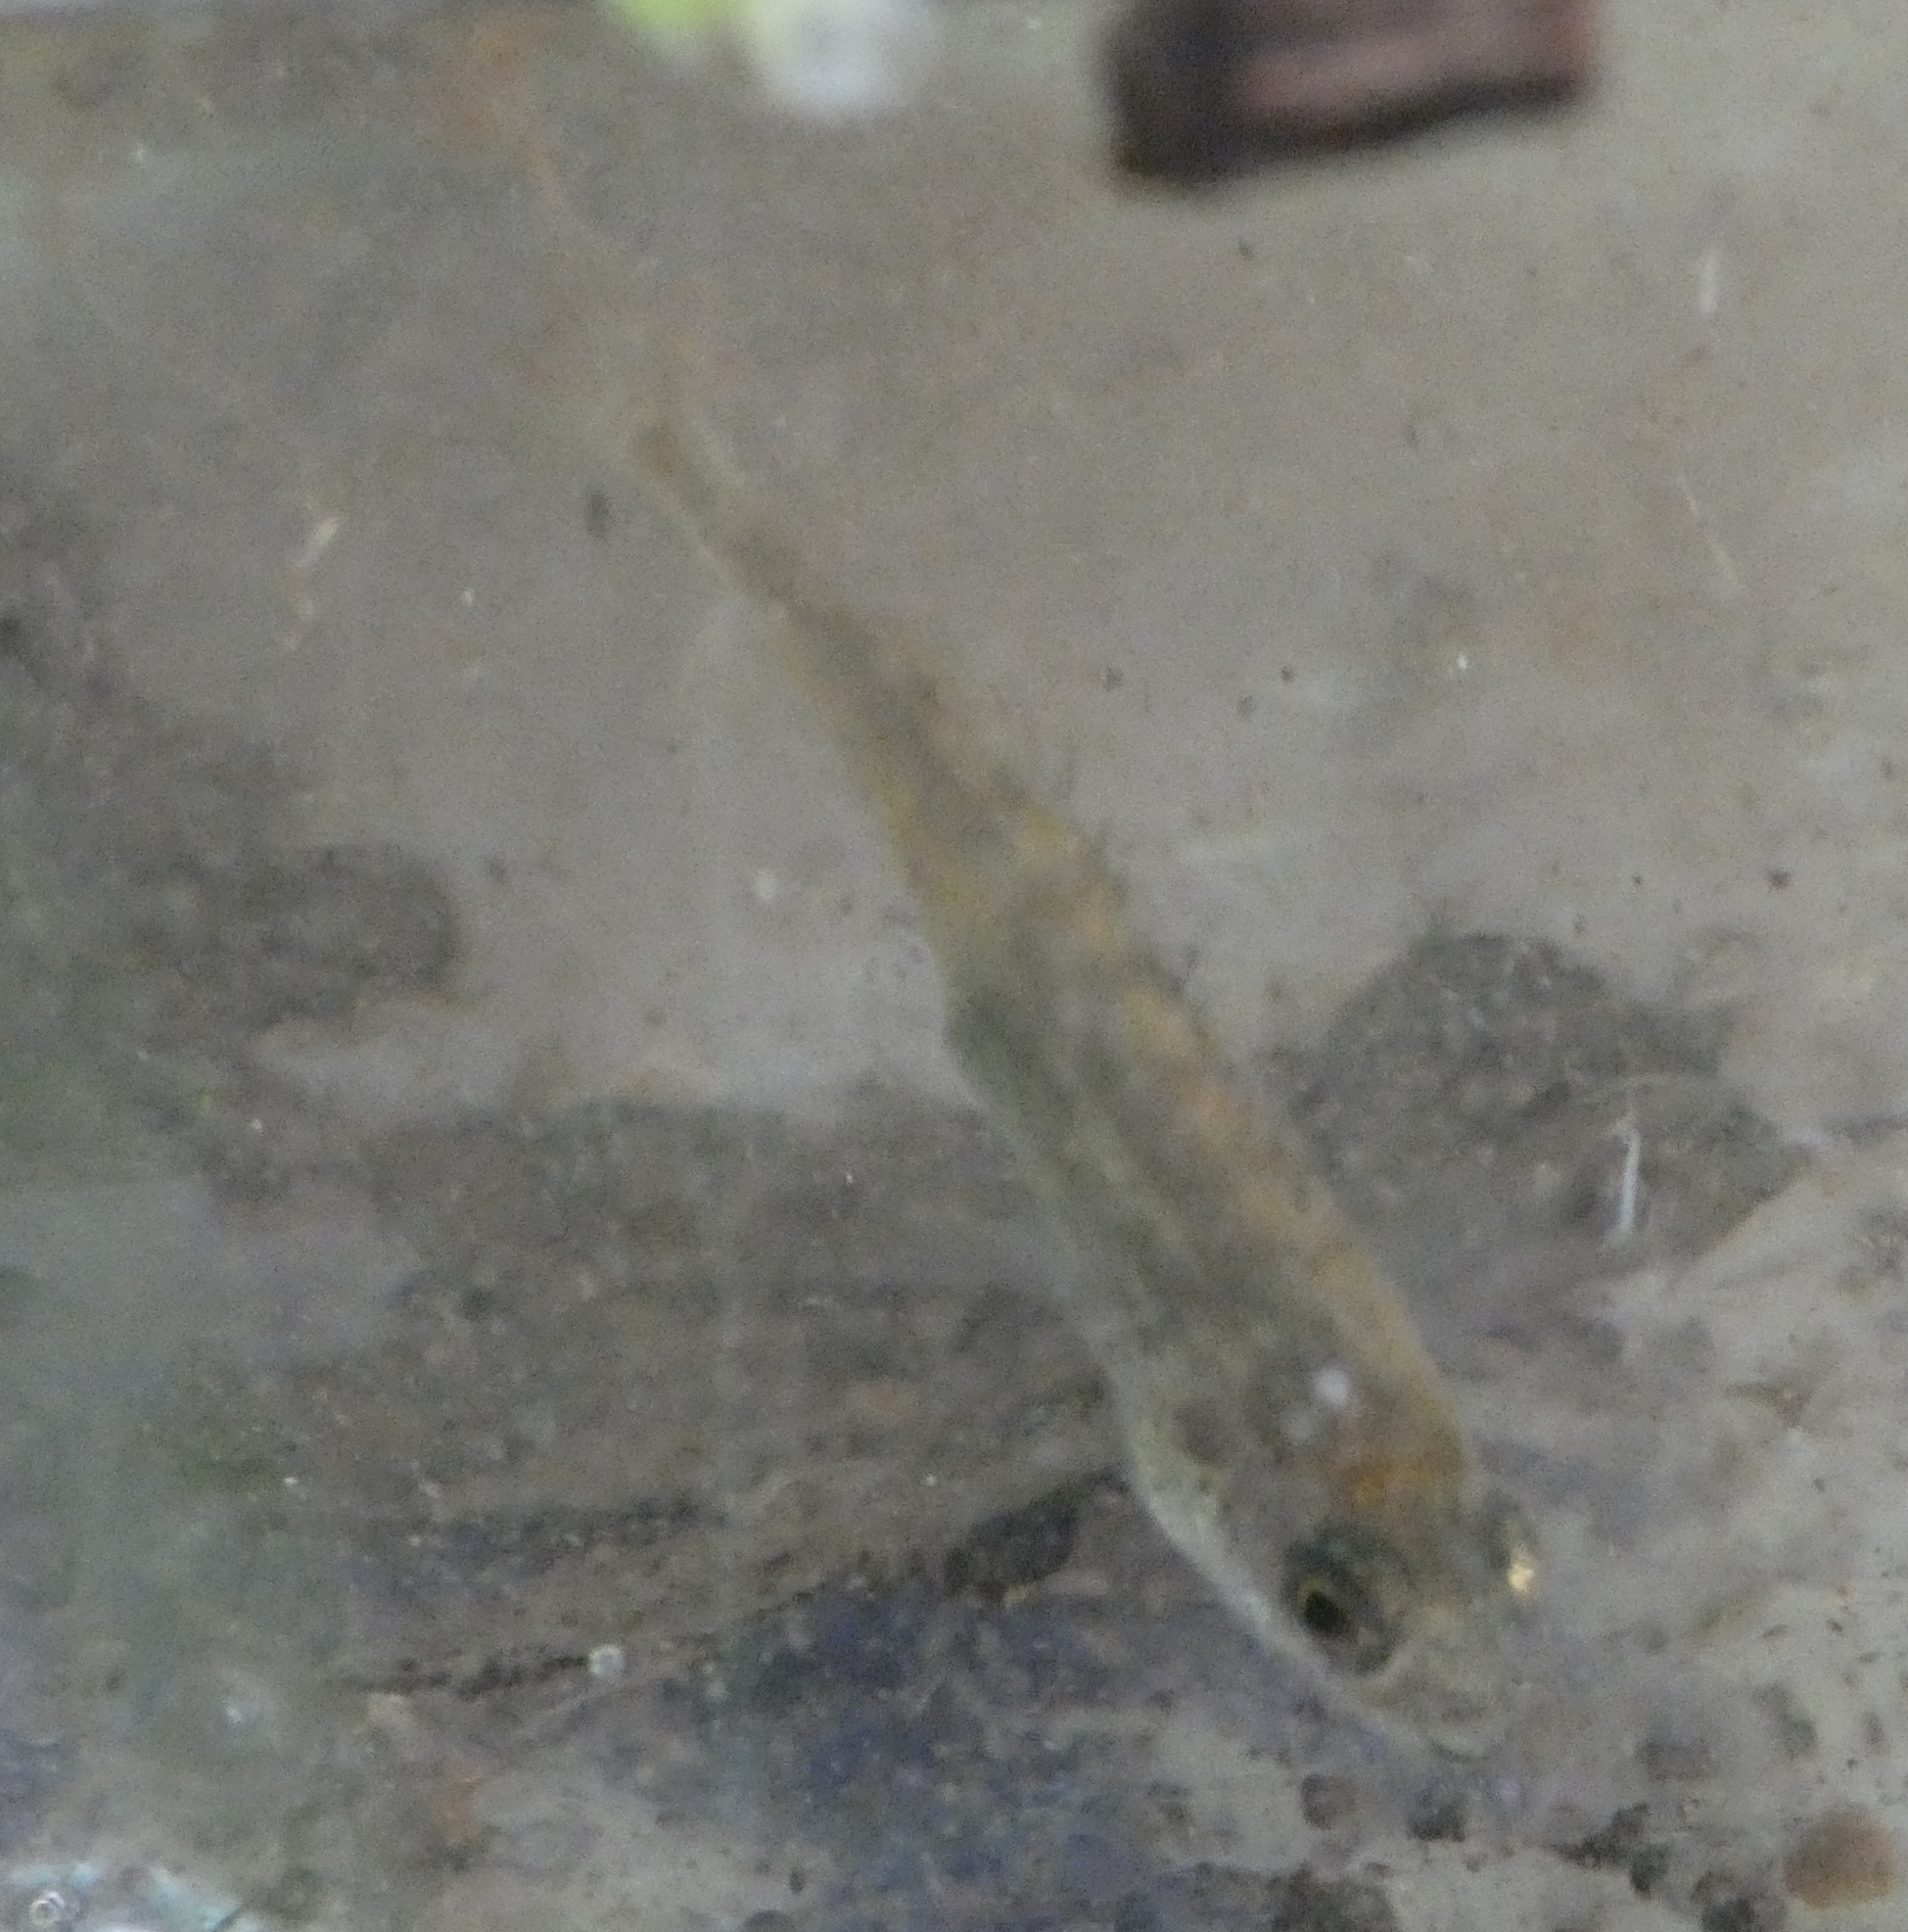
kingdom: Animalia
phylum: Chordata
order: Gasterosteiformes
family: Gasterosteidae
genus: Pungitius
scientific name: Pungitius pungitius
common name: Nipigget hundestejle
